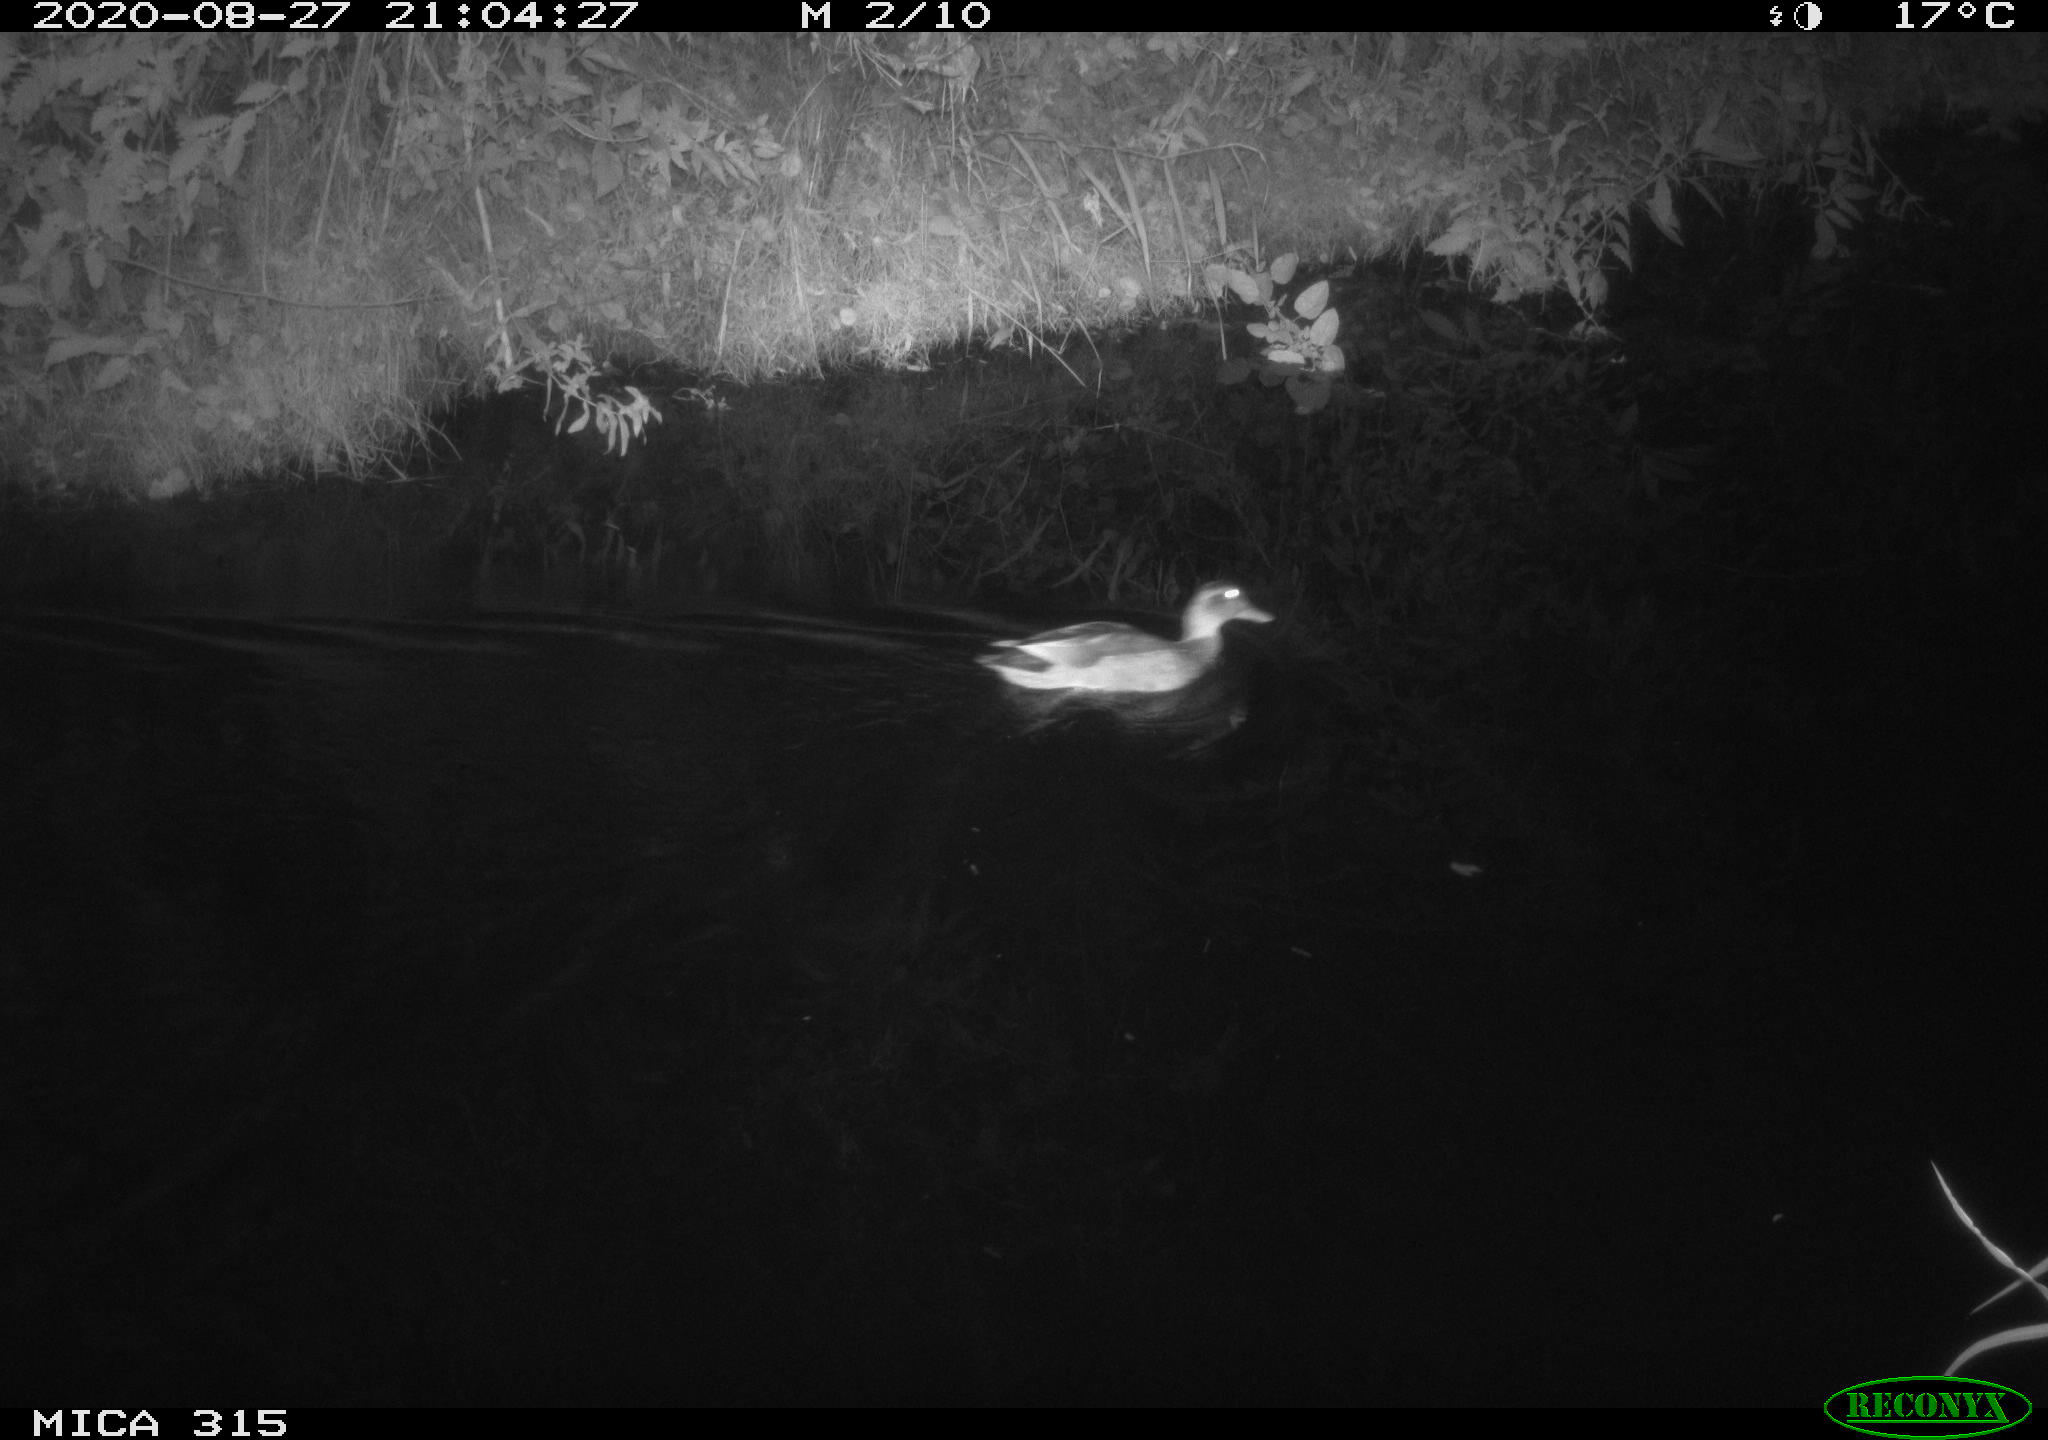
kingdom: Animalia
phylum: Chordata
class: Aves
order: Anseriformes
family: Anatidae
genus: Anas
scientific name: Anas platyrhynchos
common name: Mallard
